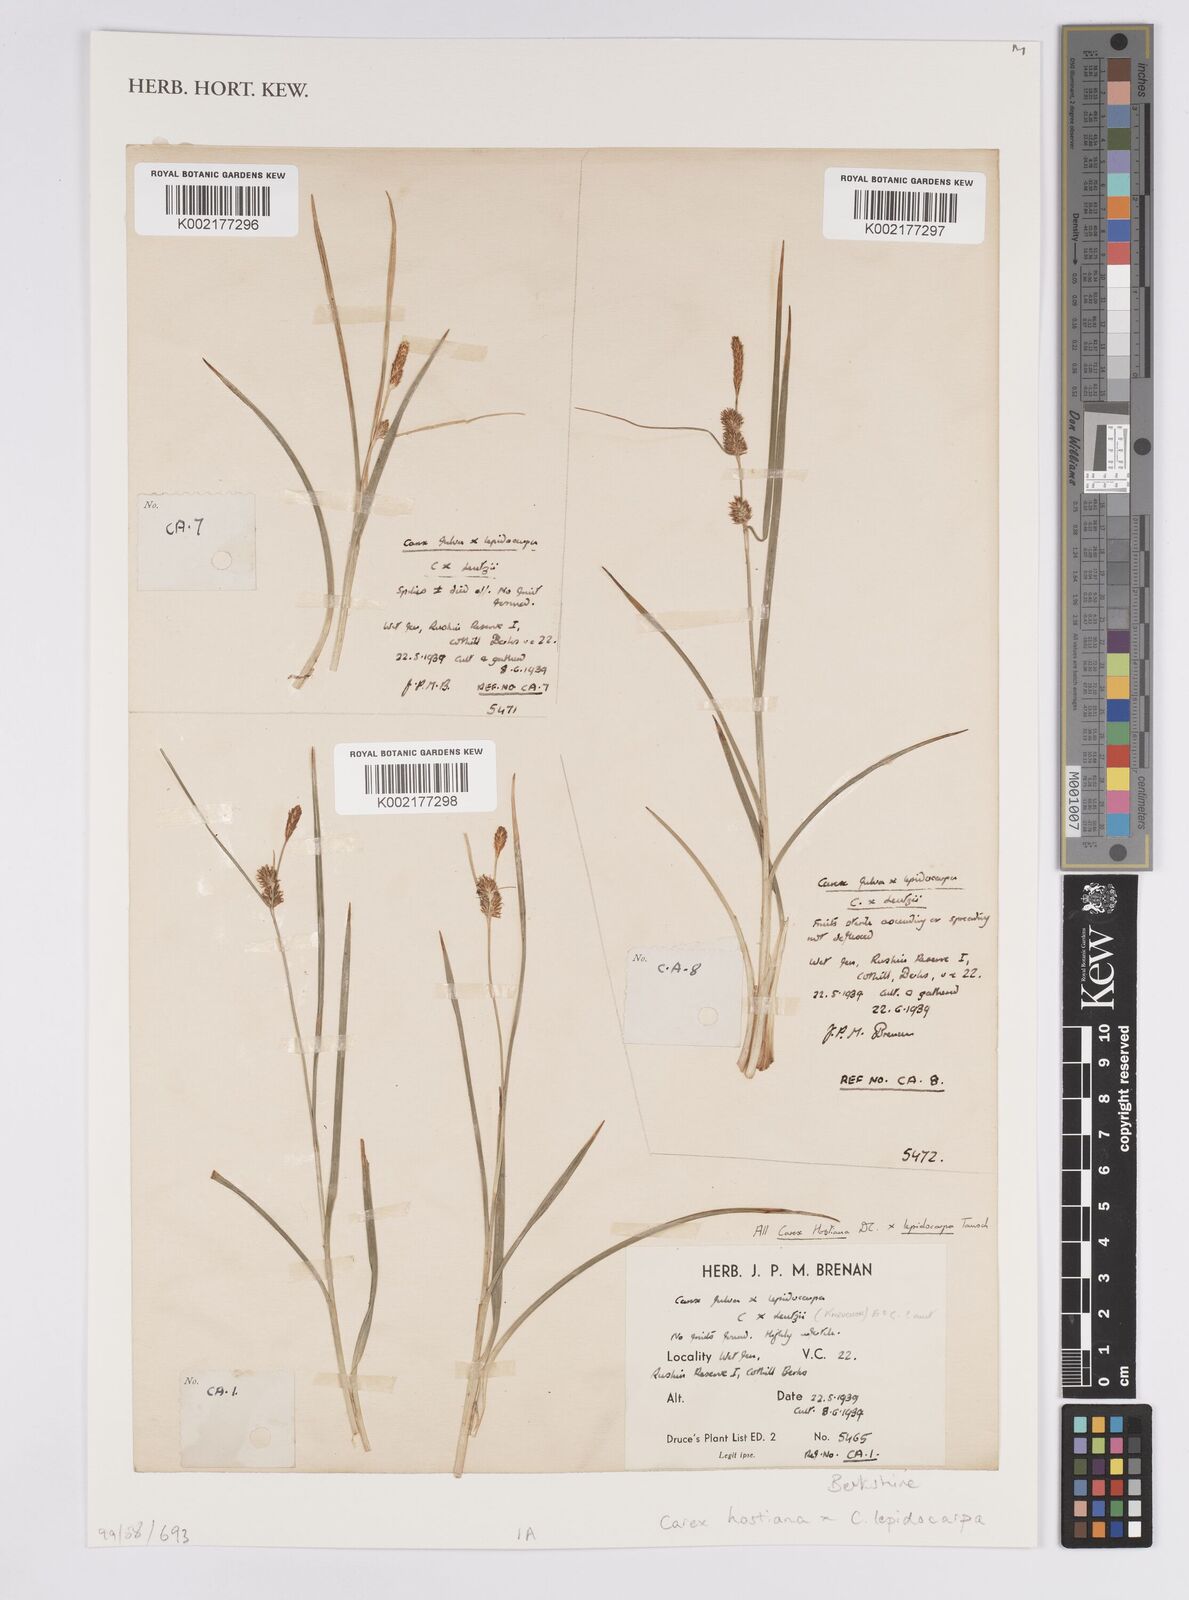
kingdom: Plantae
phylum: Tracheophyta
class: Liliopsida
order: Poales
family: Cyperaceae
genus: Carex
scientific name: Carex hostiana
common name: Tawny sedge
